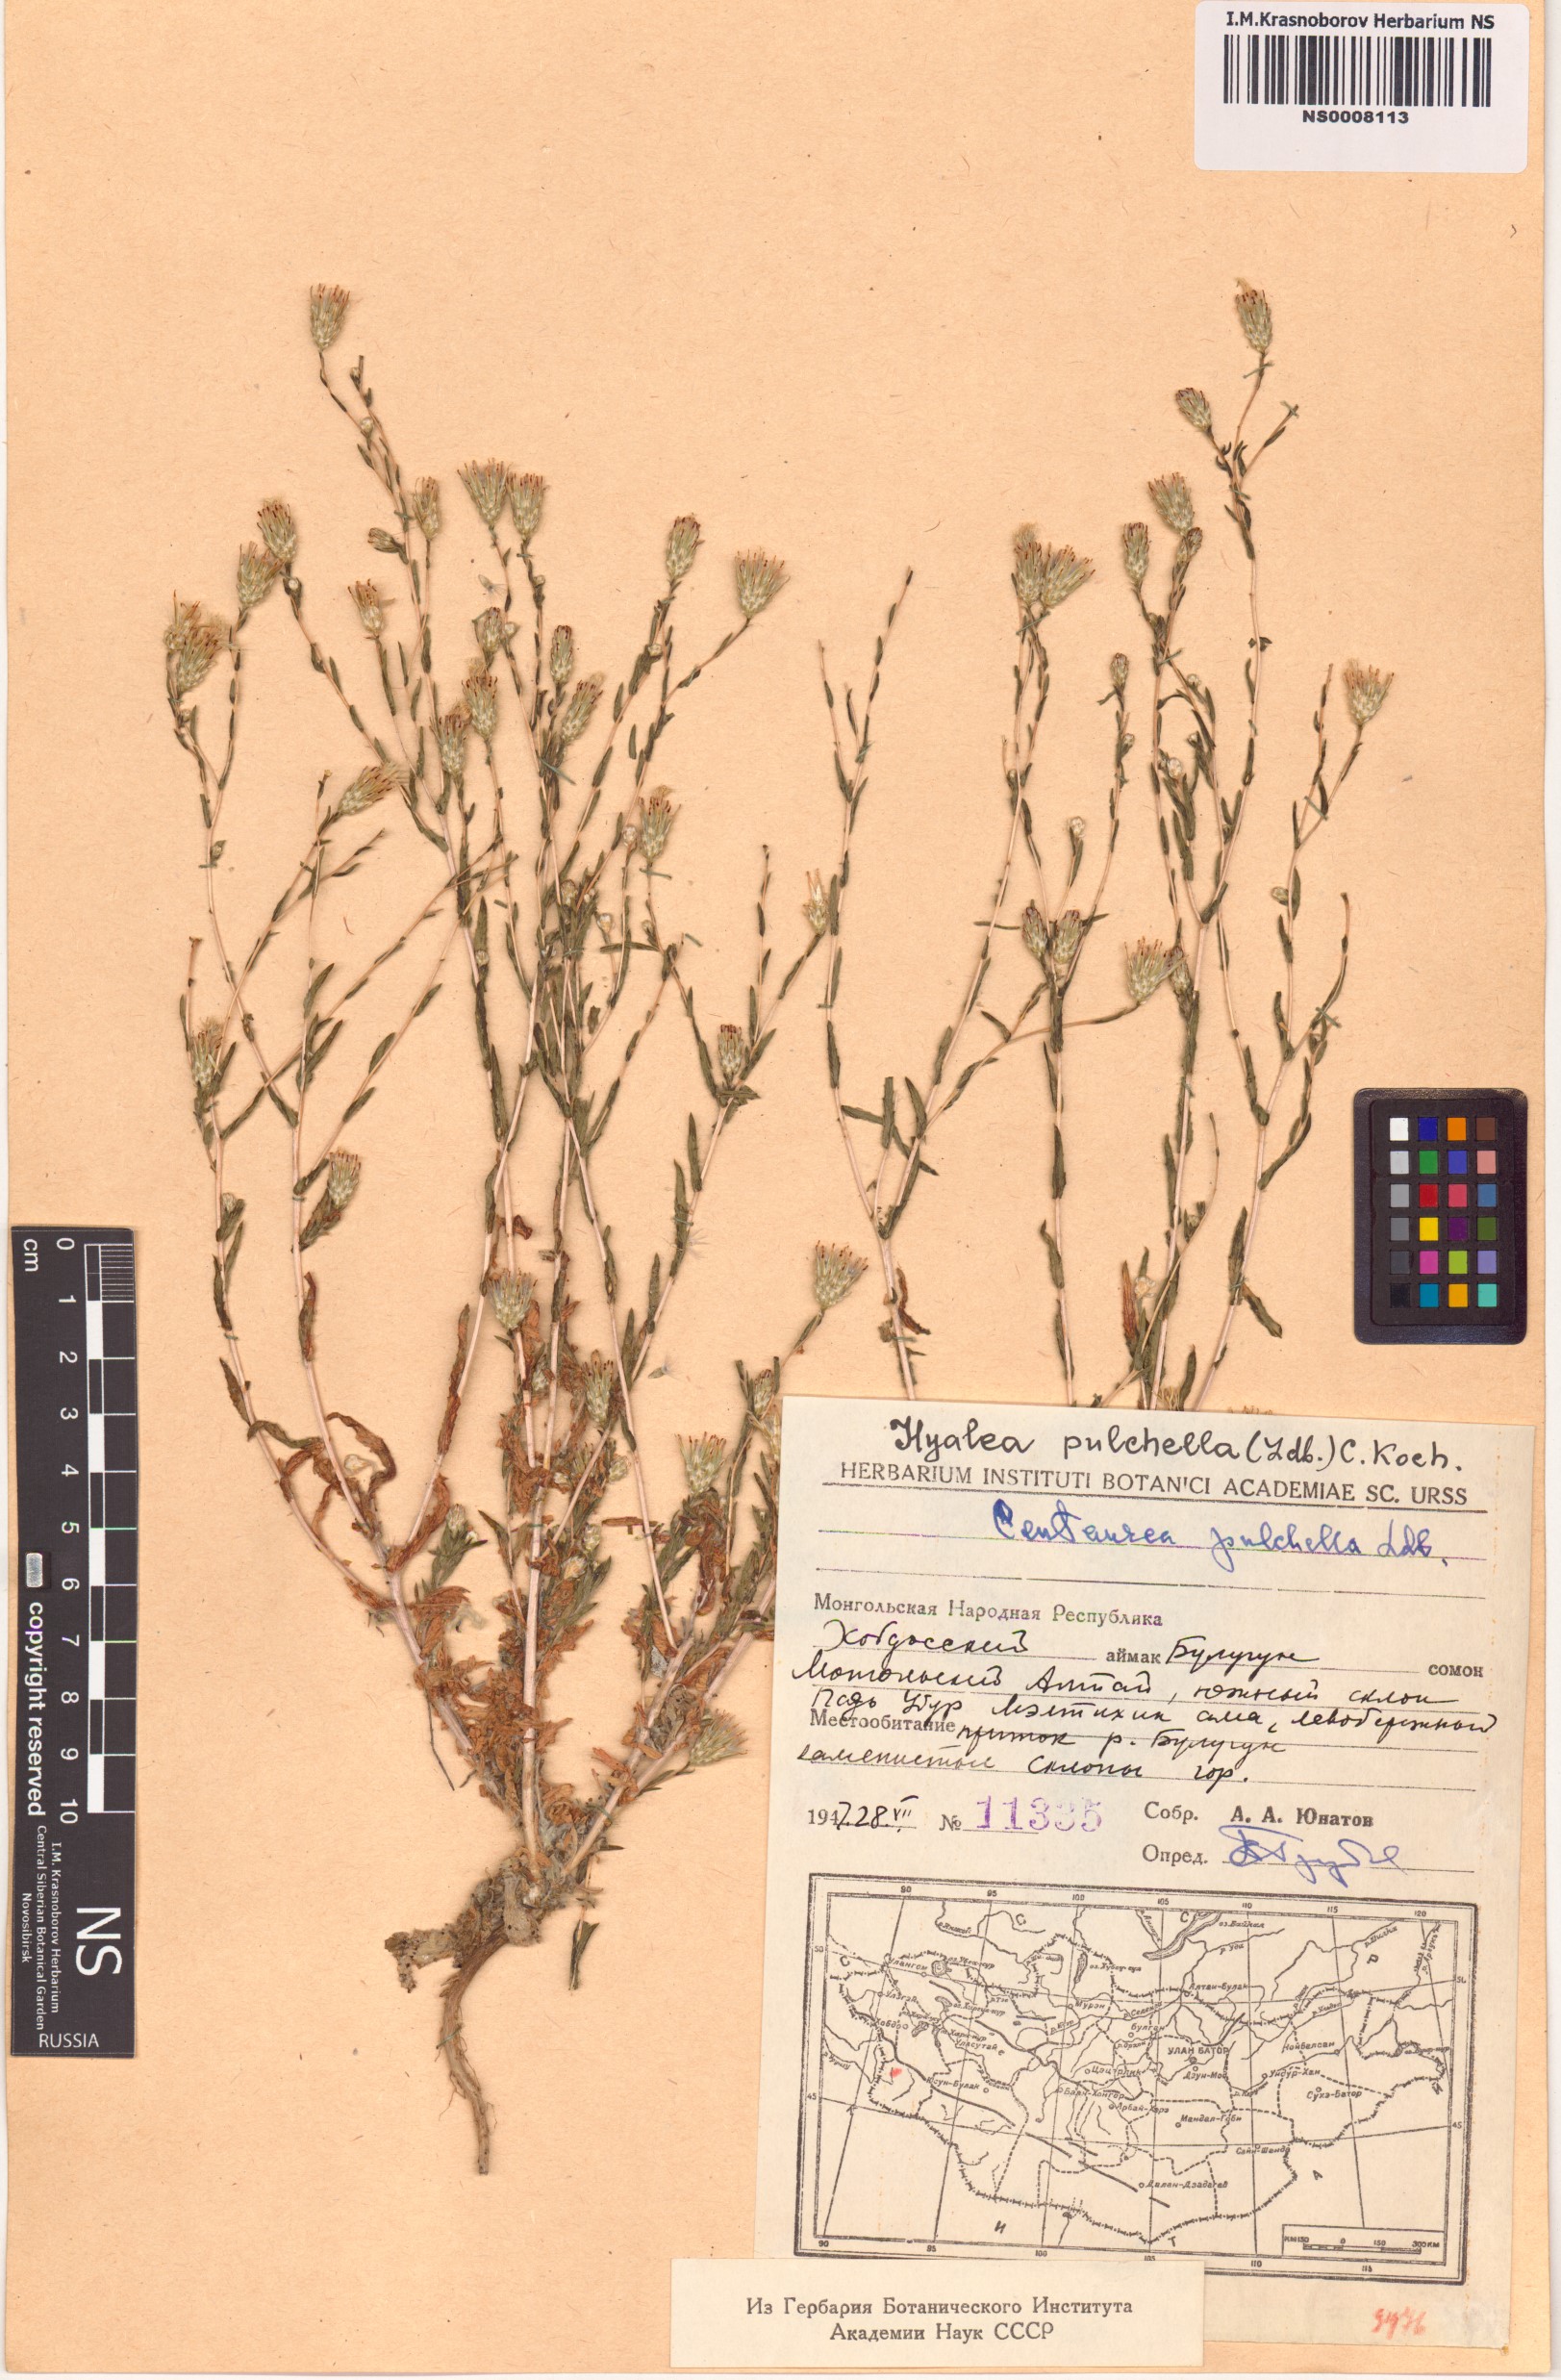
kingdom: Plantae
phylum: Tracheophyta
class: Magnoliopsida
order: Asterales
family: Asteraceae
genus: Centaurea
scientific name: Centaurea pulchella
